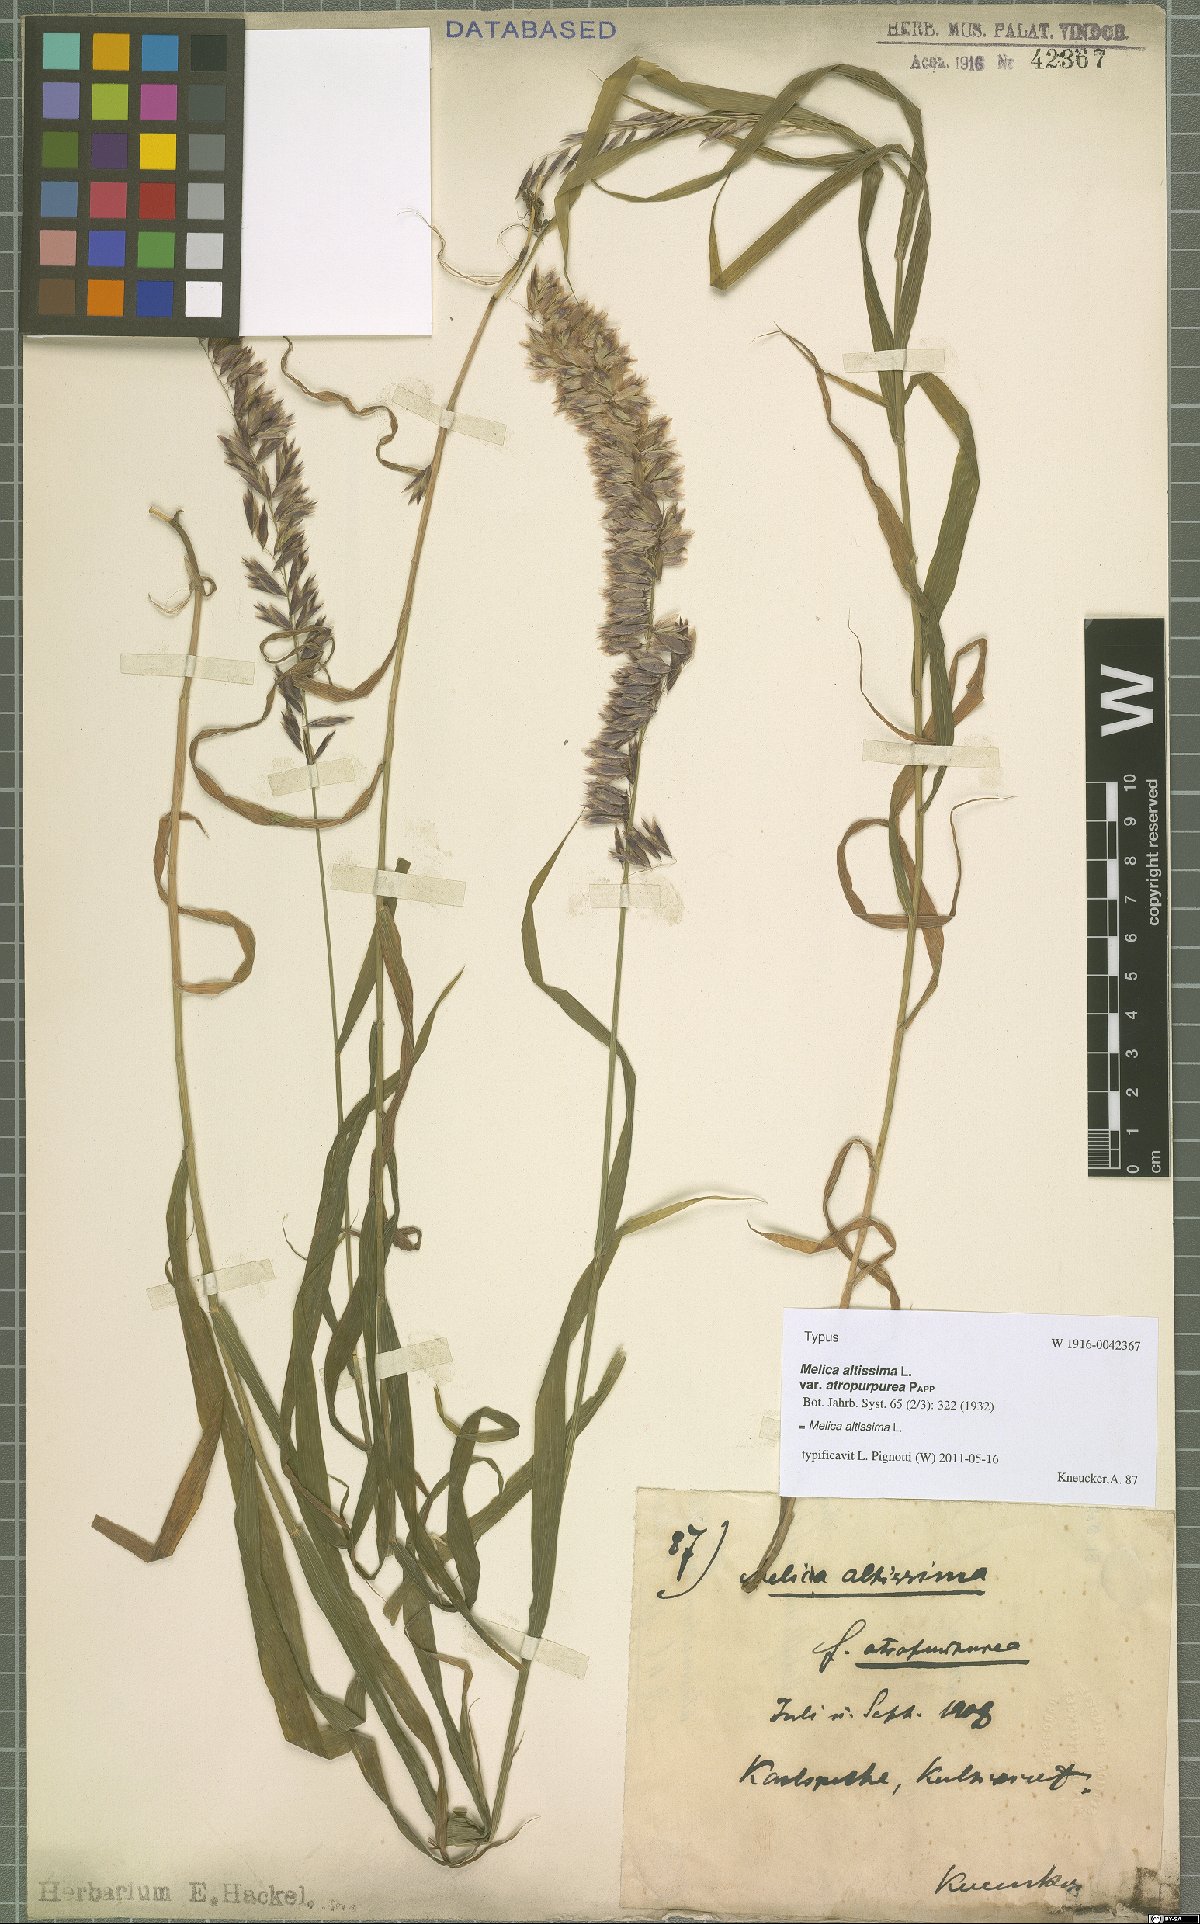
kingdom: Plantae
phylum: Tracheophyta
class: Liliopsida
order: Poales
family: Poaceae
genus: Melica
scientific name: Melica altissima
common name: Siberian melicgrass
